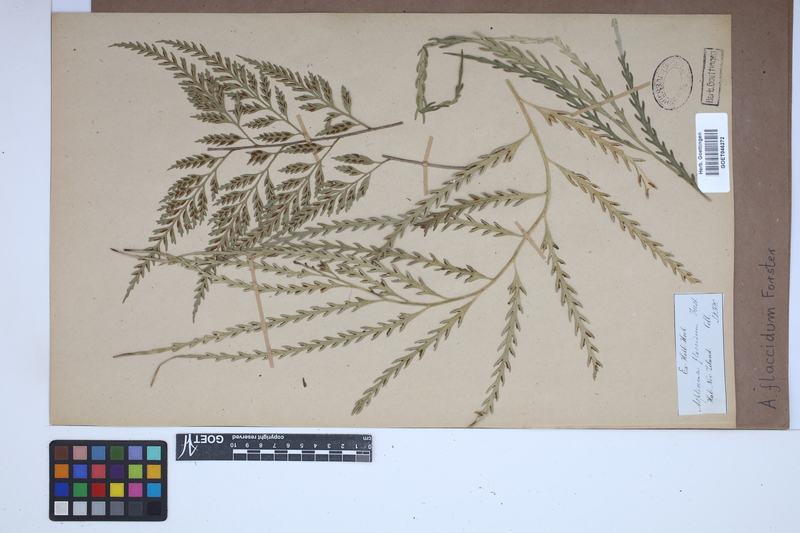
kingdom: Plantae
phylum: Tracheophyta
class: Polypodiopsida
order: Polypodiales
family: Aspleniaceae
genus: Asplenium
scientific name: Asplenium flaccidum
